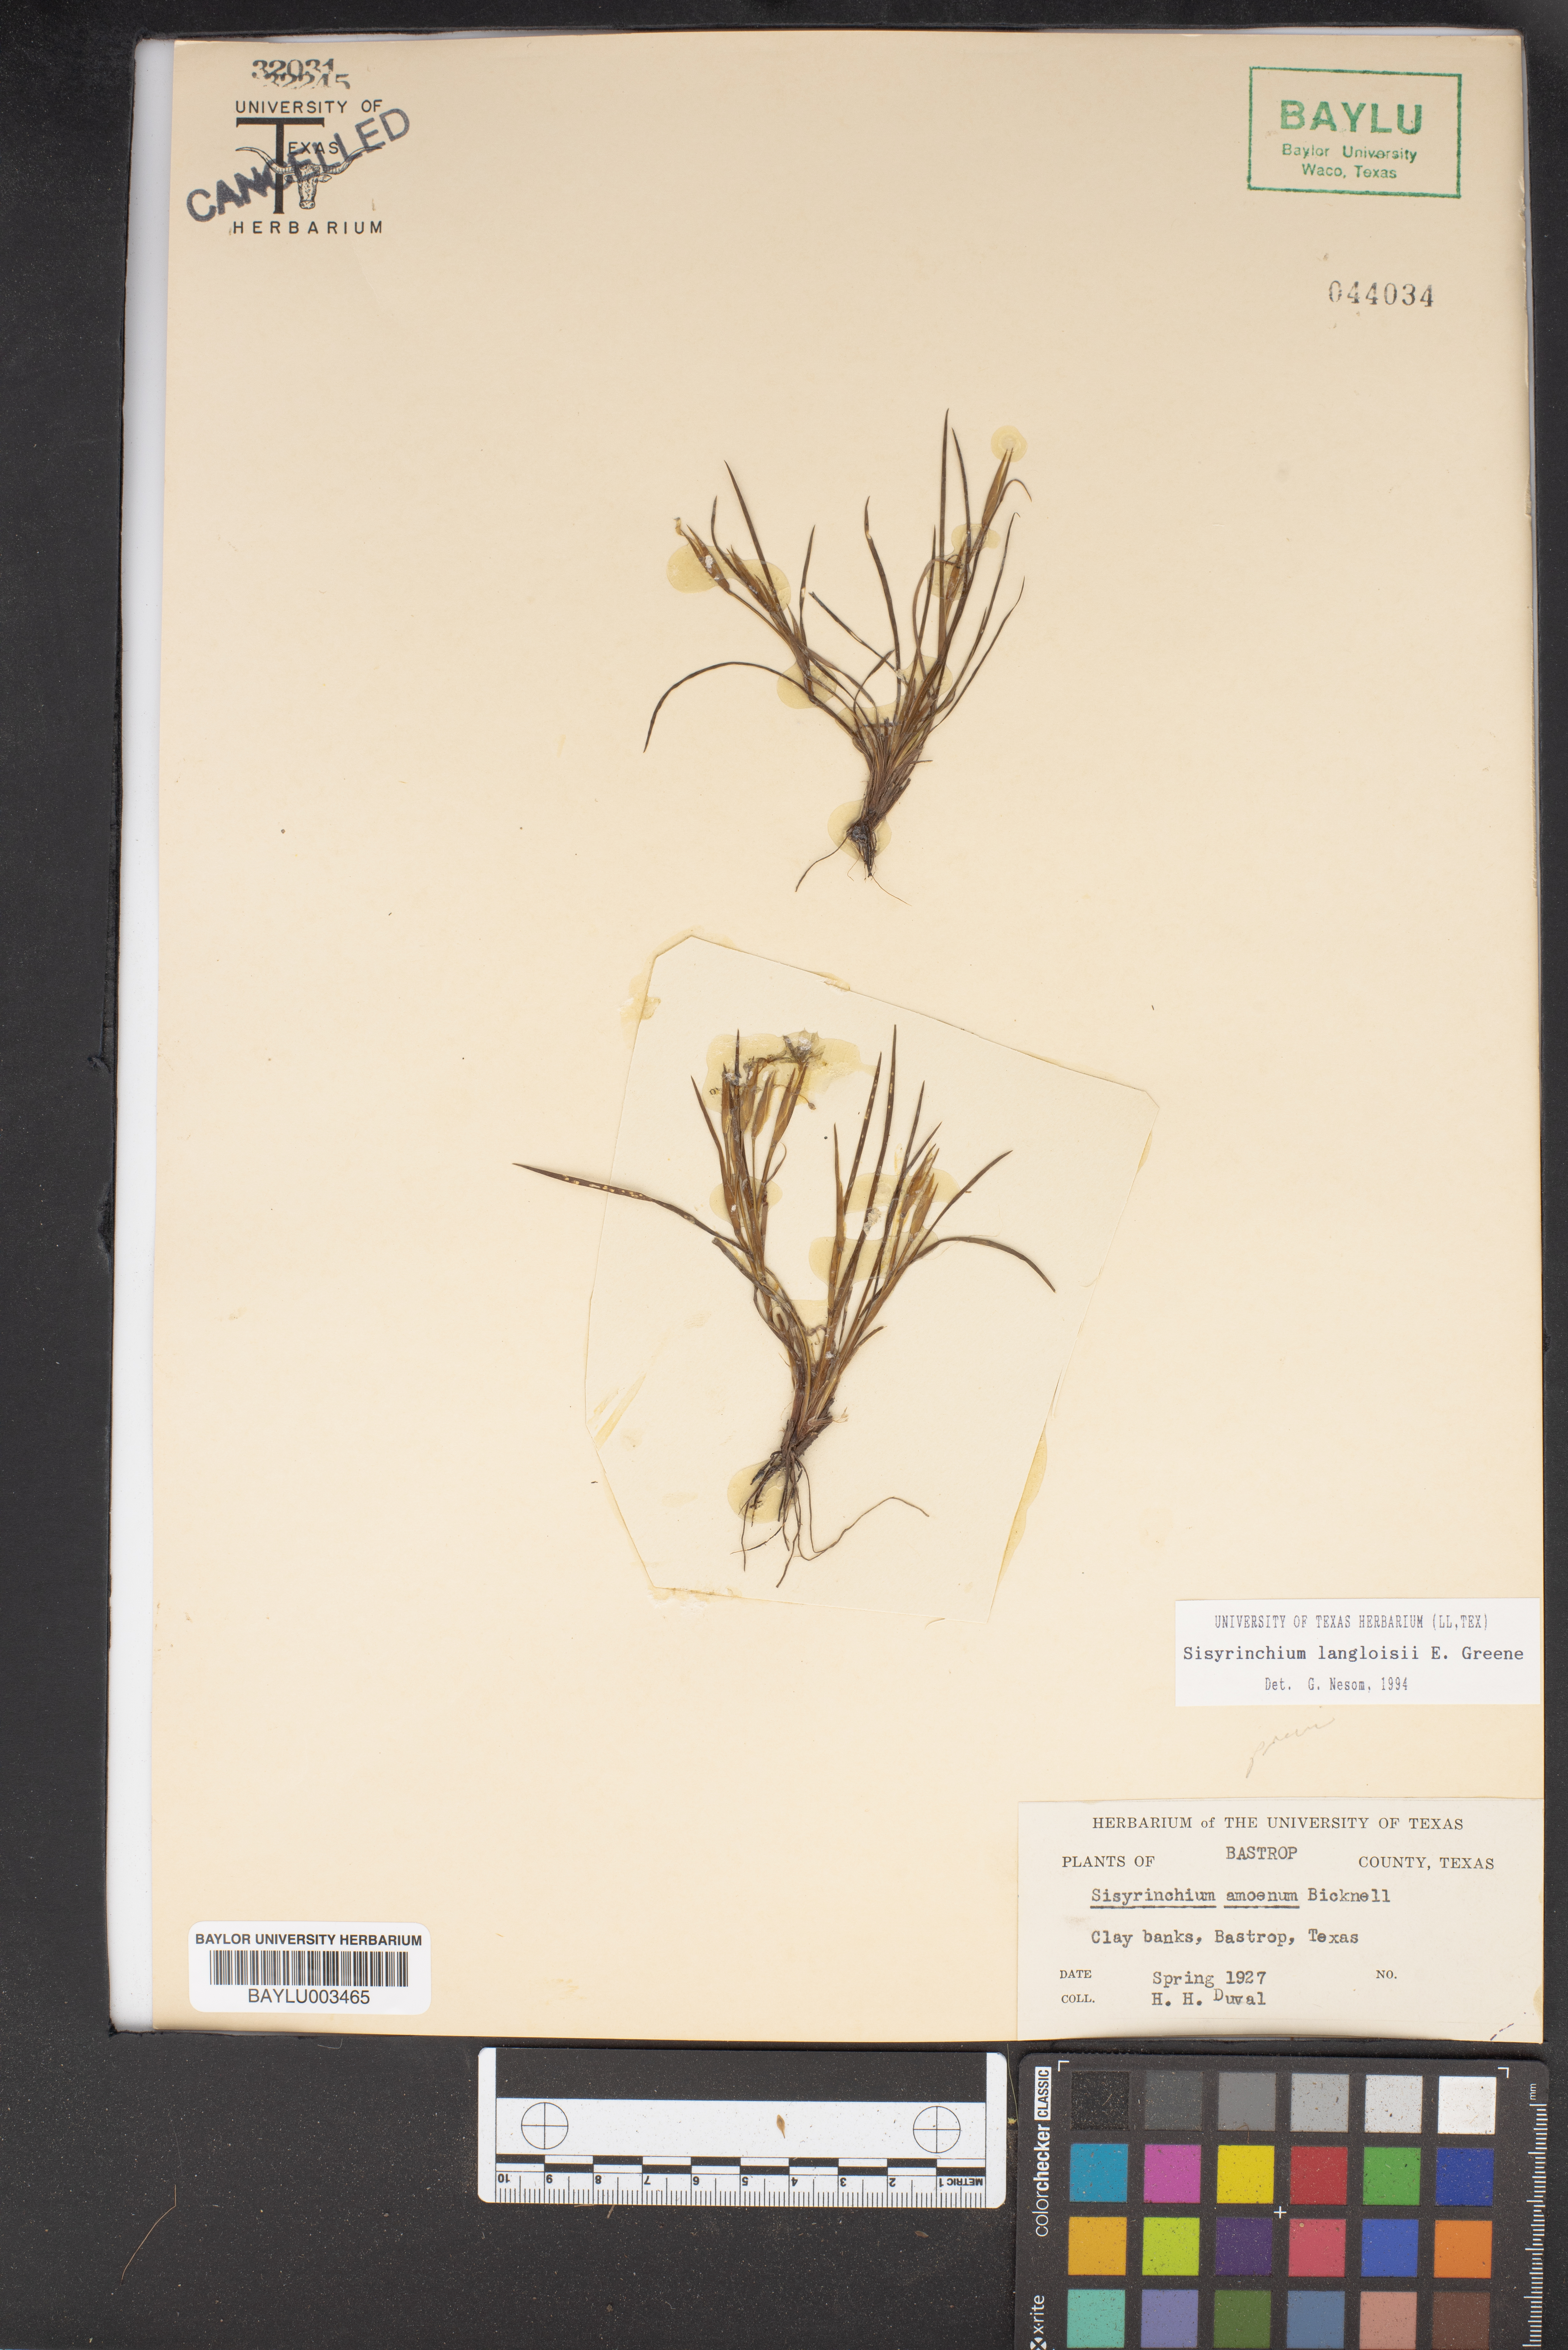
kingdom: Plantae
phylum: Tracheophyta
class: Liliopsida
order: Asparagales
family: Iridaceae
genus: Sisyrinchium
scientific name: Sisyrinchium ensigerum
